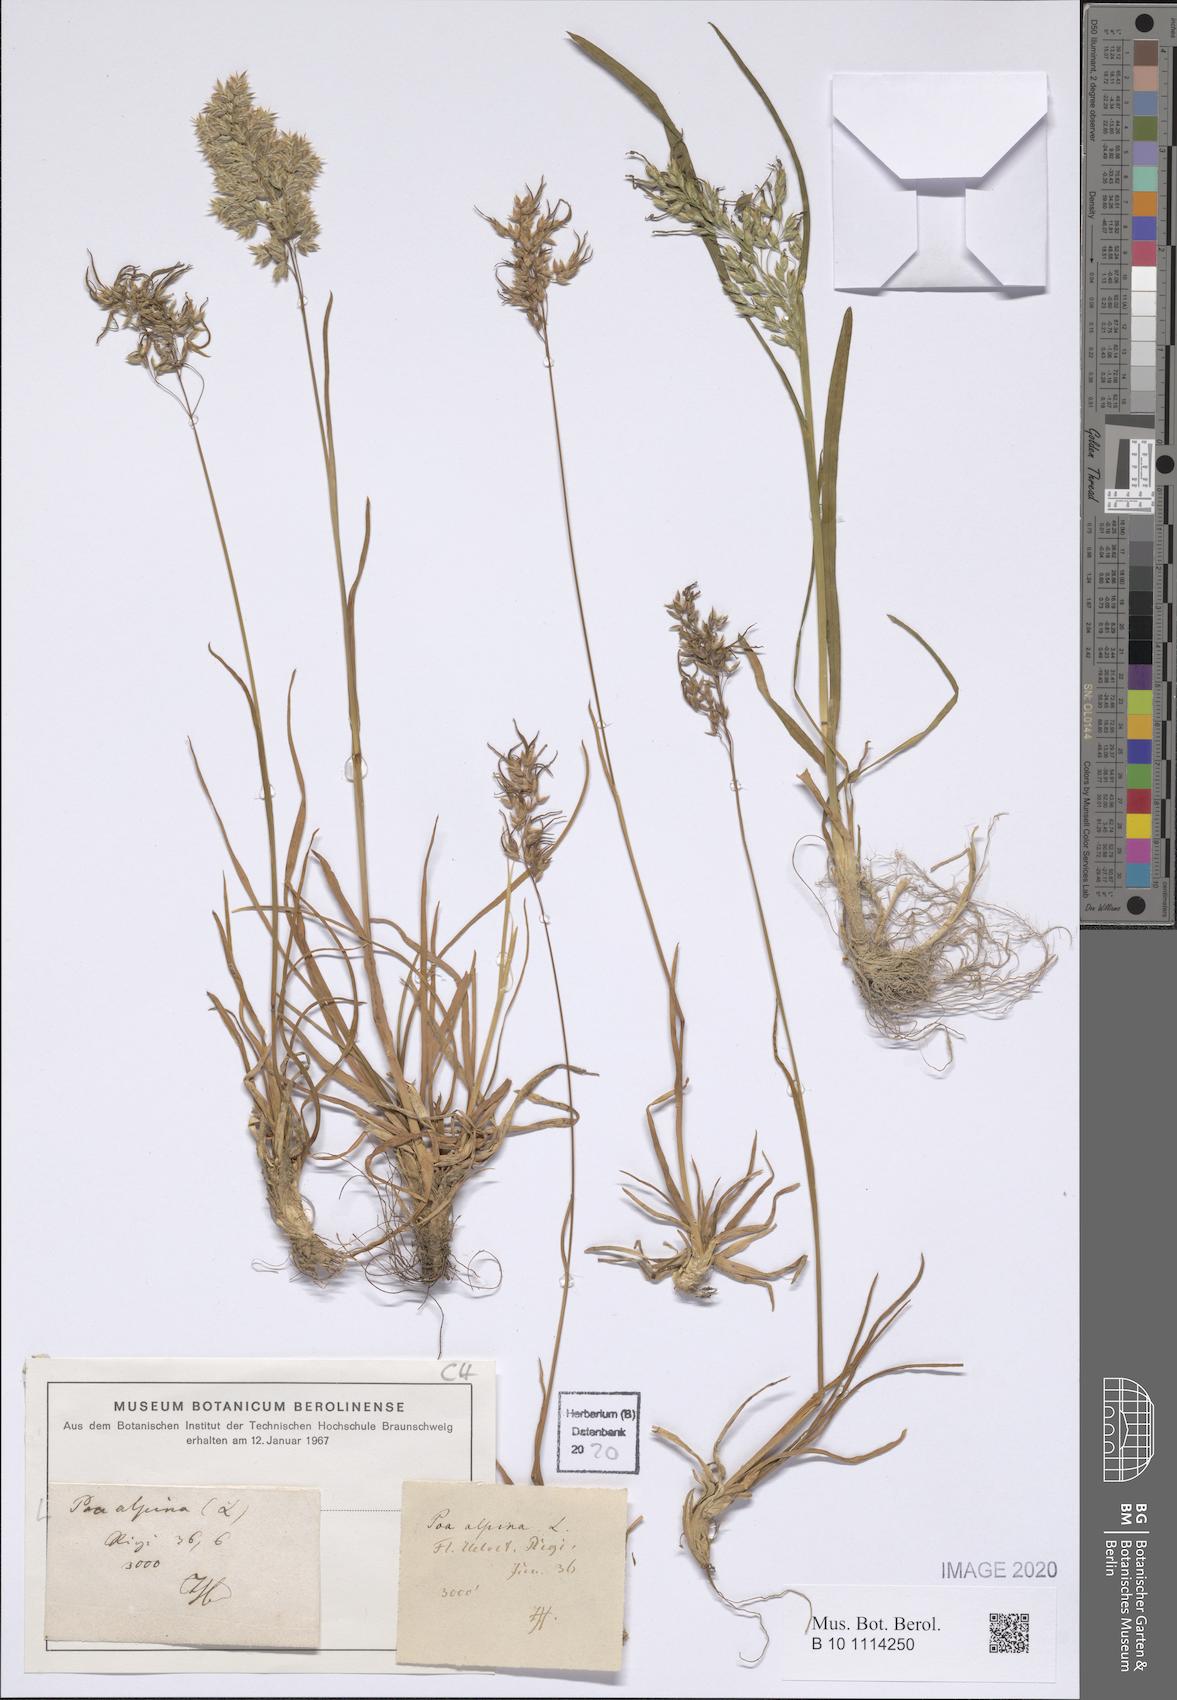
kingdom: Plantae
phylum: Tracheophyta
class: Liliopsida
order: Poales
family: Poaceae
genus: Poa
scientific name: Poa alpina
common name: Alpine bluegrass
